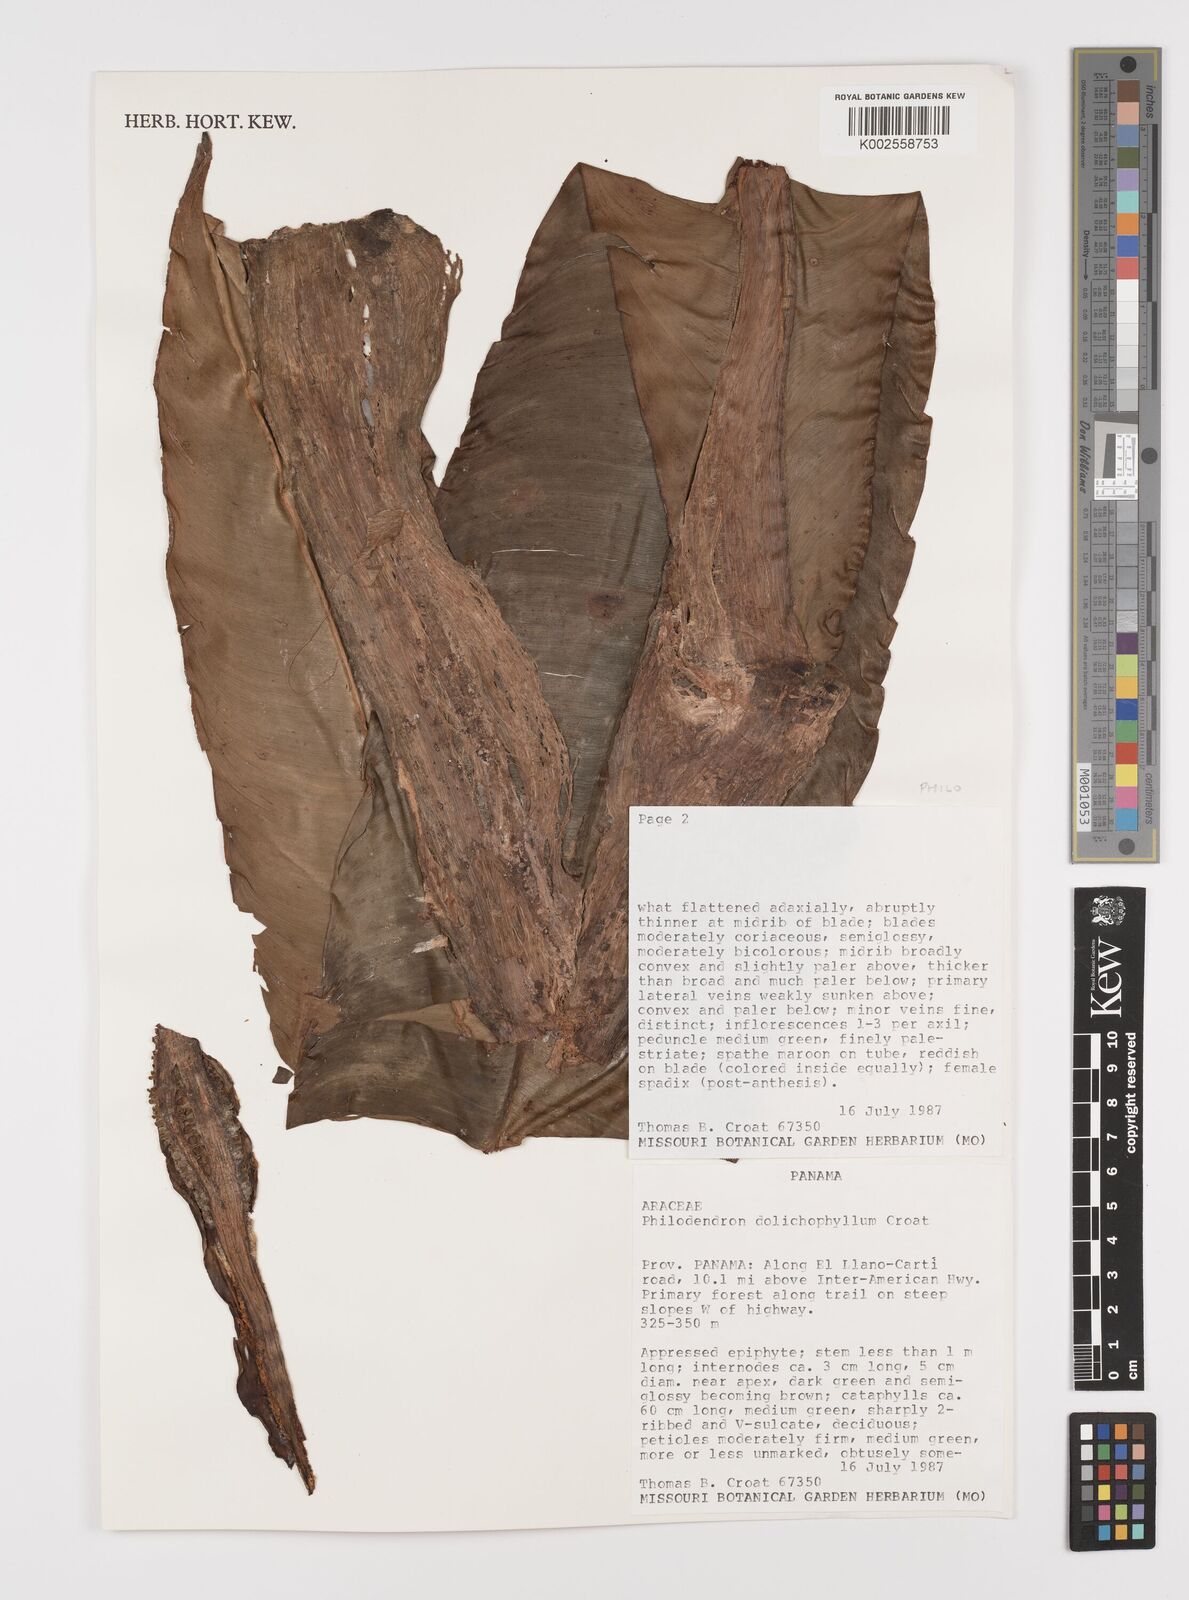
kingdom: Plantae
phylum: Tracheophyta
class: Liliopsida
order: Alismatales
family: Araceae
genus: Philodendron
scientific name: Philodendron dolichophyllum
